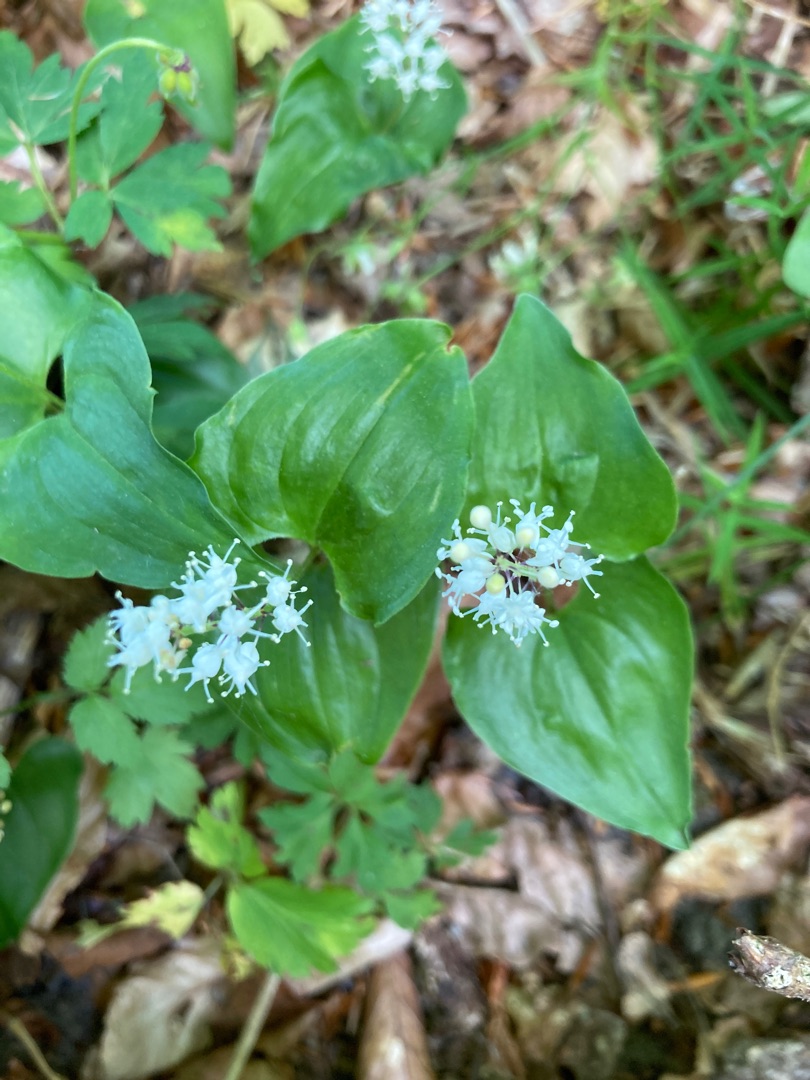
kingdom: Plantae
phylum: Tracheophyta
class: Liliopsida
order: Asparagales
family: Asparagaceae
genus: Maianthemum
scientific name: Maianthemum bifolium
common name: Majblomst
